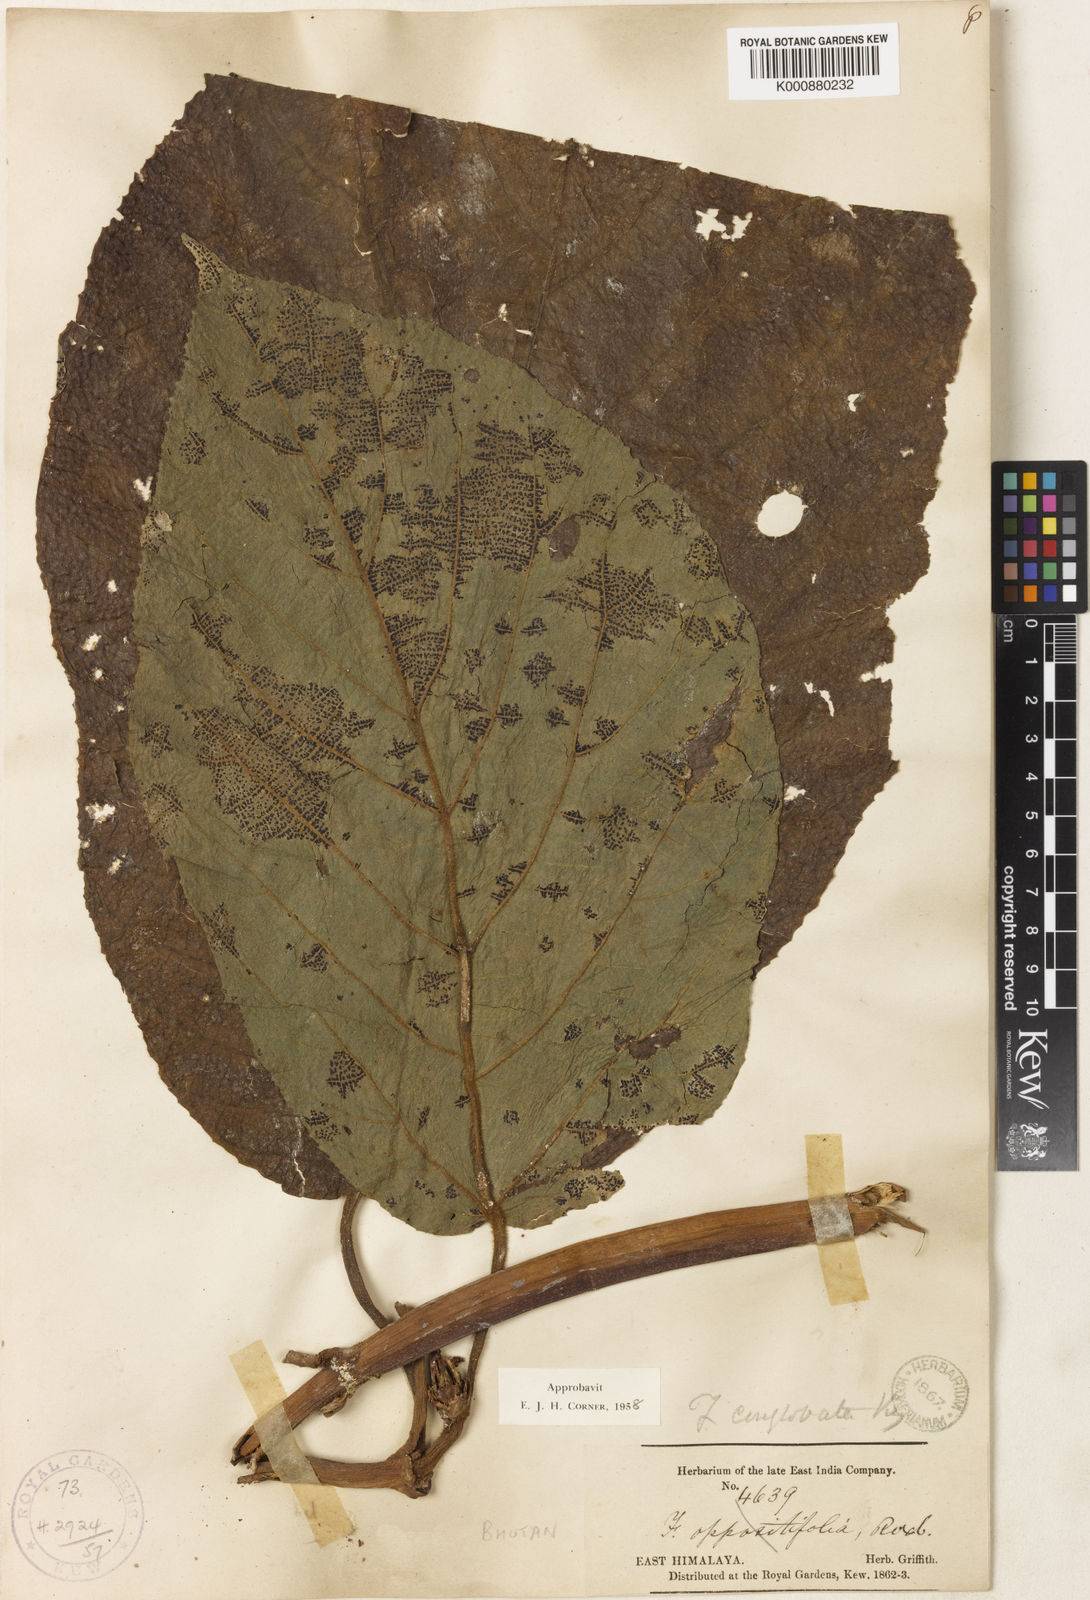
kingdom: Plantae
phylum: Tracheophyta
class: Magnoliopsida
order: Rosales
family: Moraceae
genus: Ficus
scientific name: Ficus conglobata
